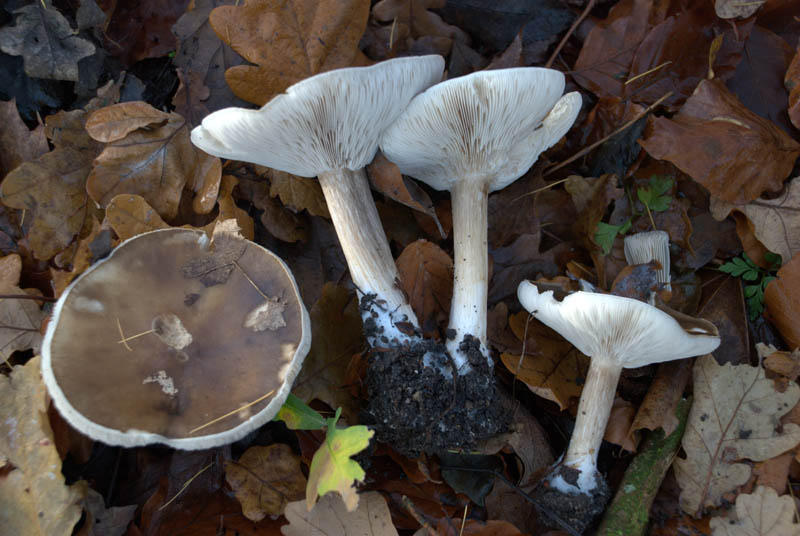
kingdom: Fungi
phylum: Basidiomycota
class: Agaricomycetes
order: Agaricales
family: Tricholomataceae
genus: Melanoleuca
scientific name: Melanoleuca
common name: munkehat
